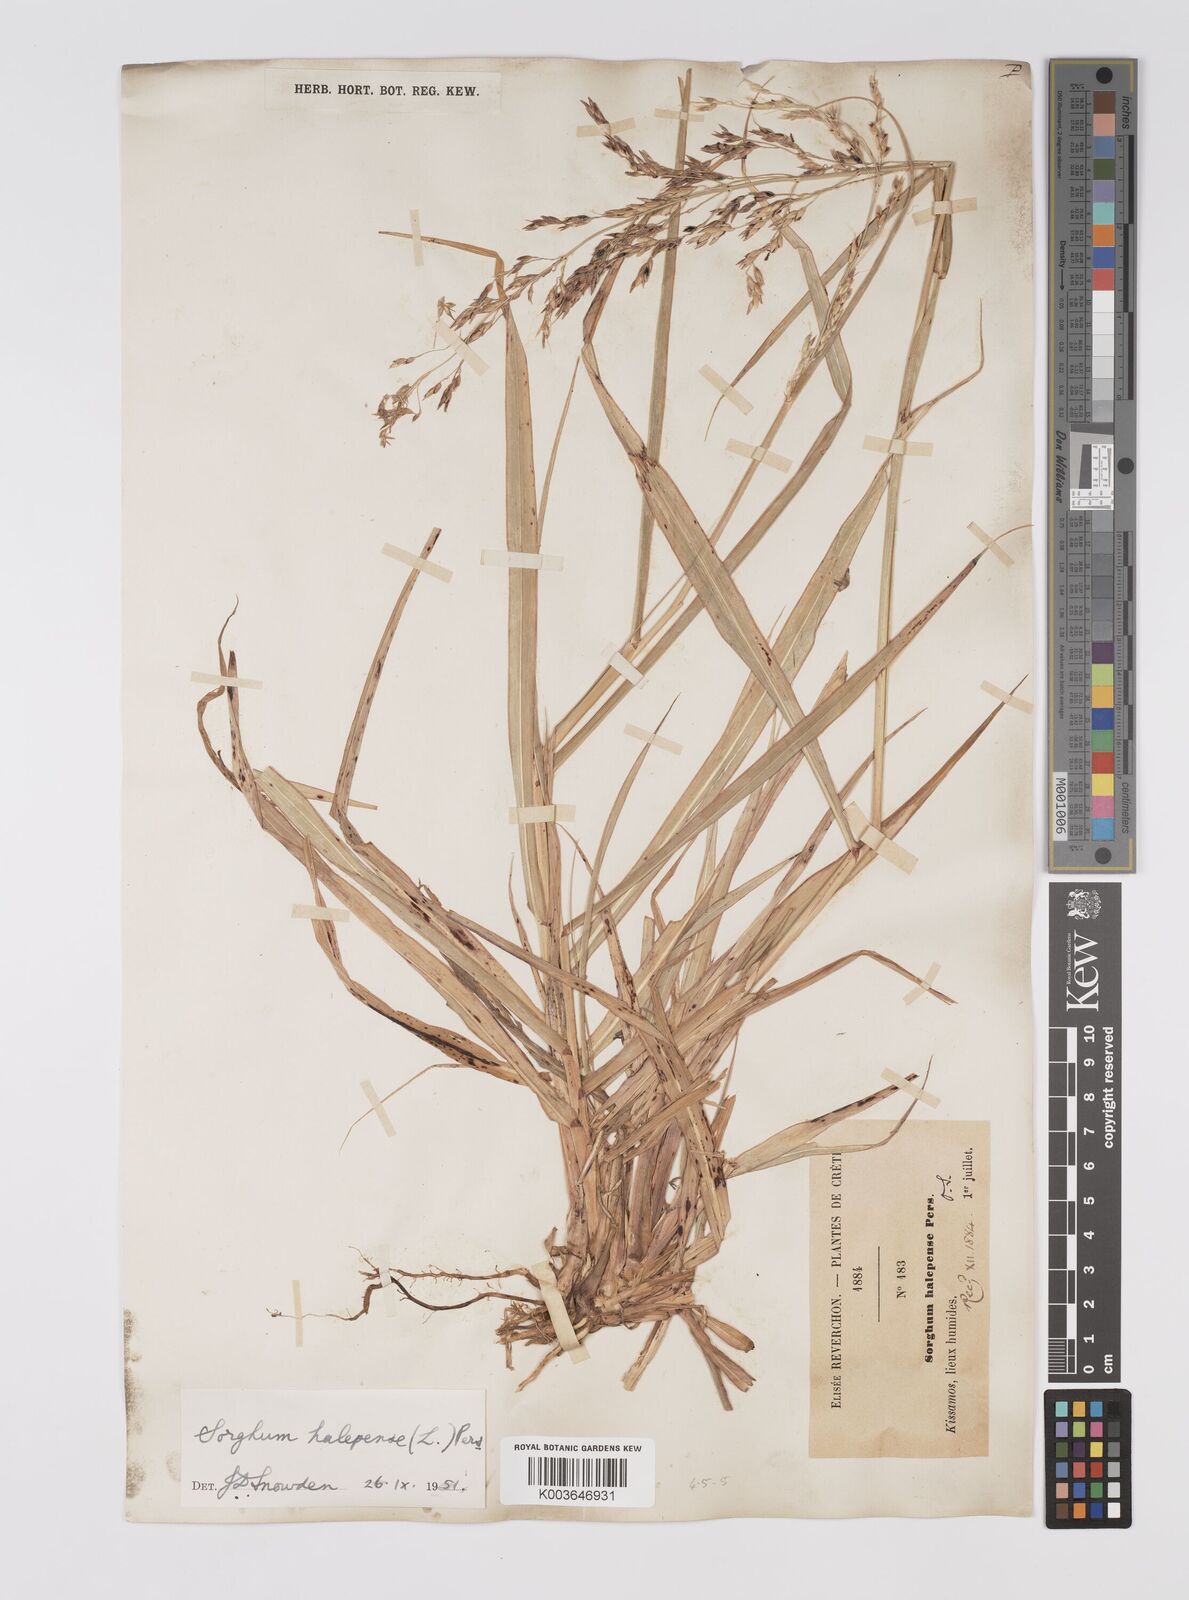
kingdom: Plantae
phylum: Tracheophyta
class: Liliopsida
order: Poales
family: Poaceae
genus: Sorghum
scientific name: Sorghum halepense
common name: Johnson-grass
